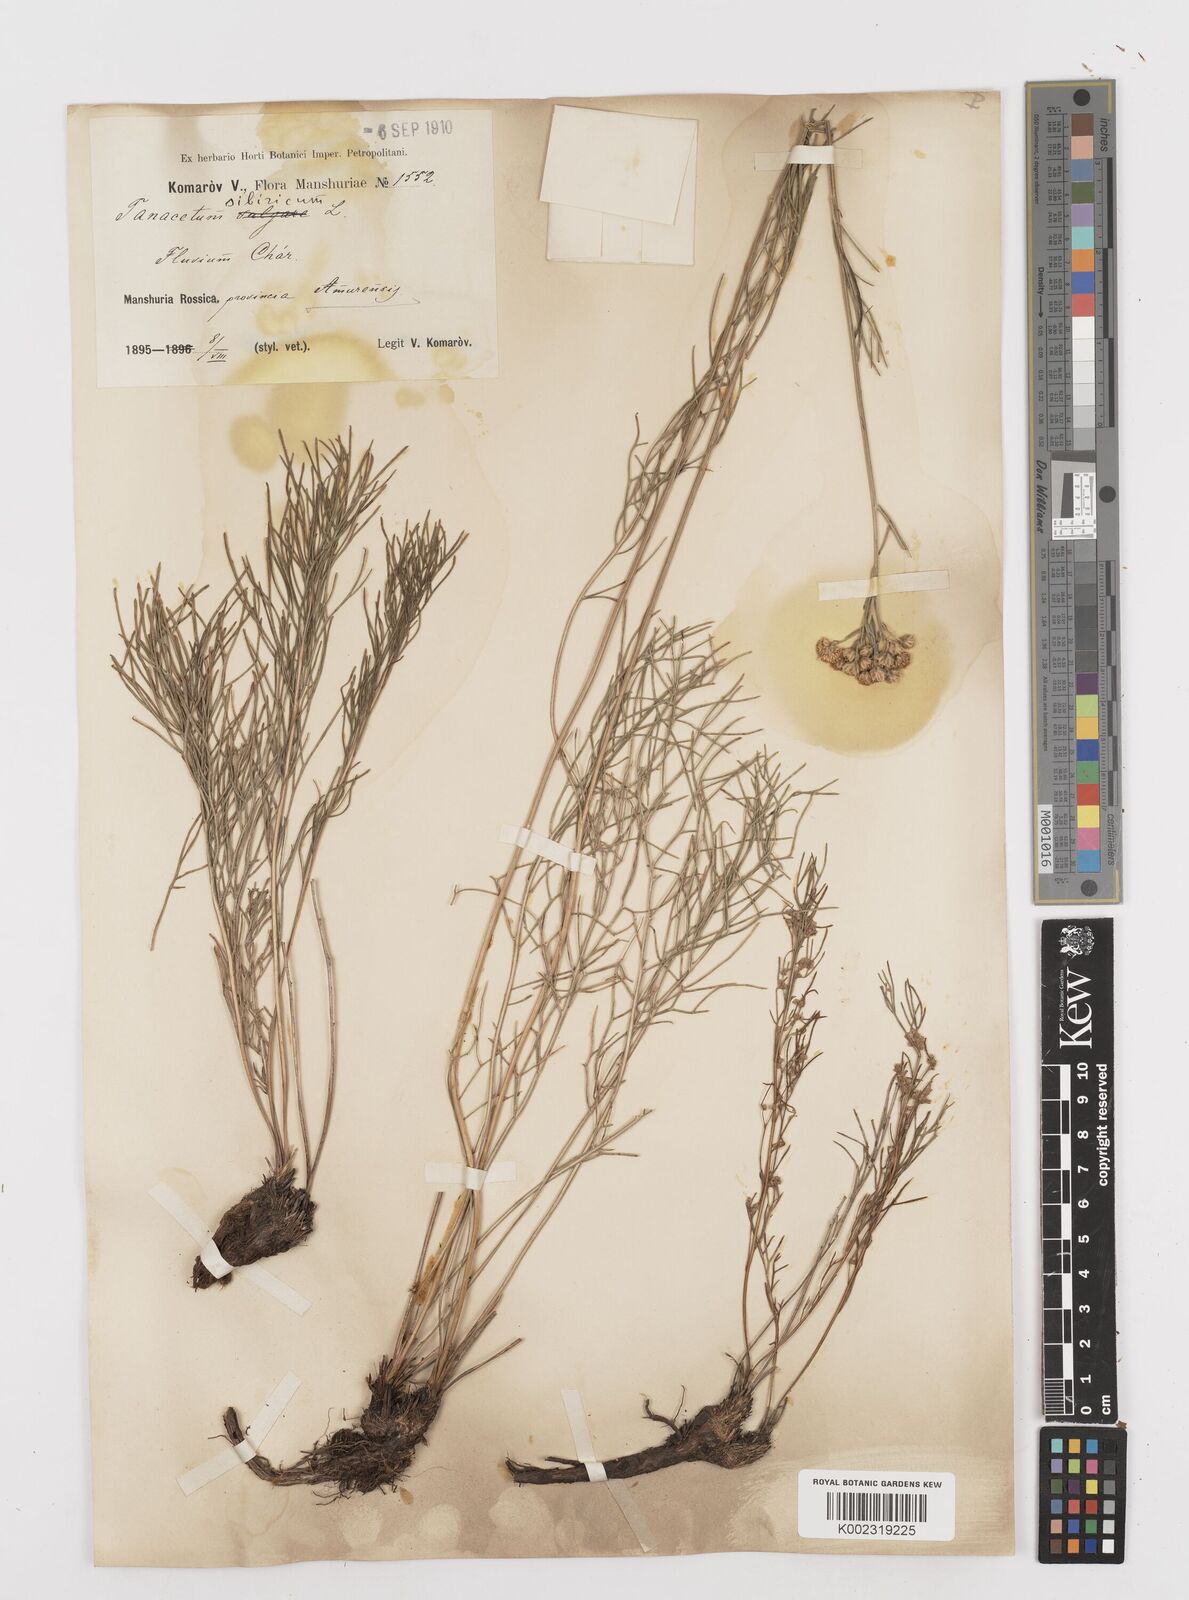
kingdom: Plantae
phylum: Tracheophyta
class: Magnoliopsida
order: Asterales
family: Asteraceae
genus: Filifolium
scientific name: Filifolium sibiricum
